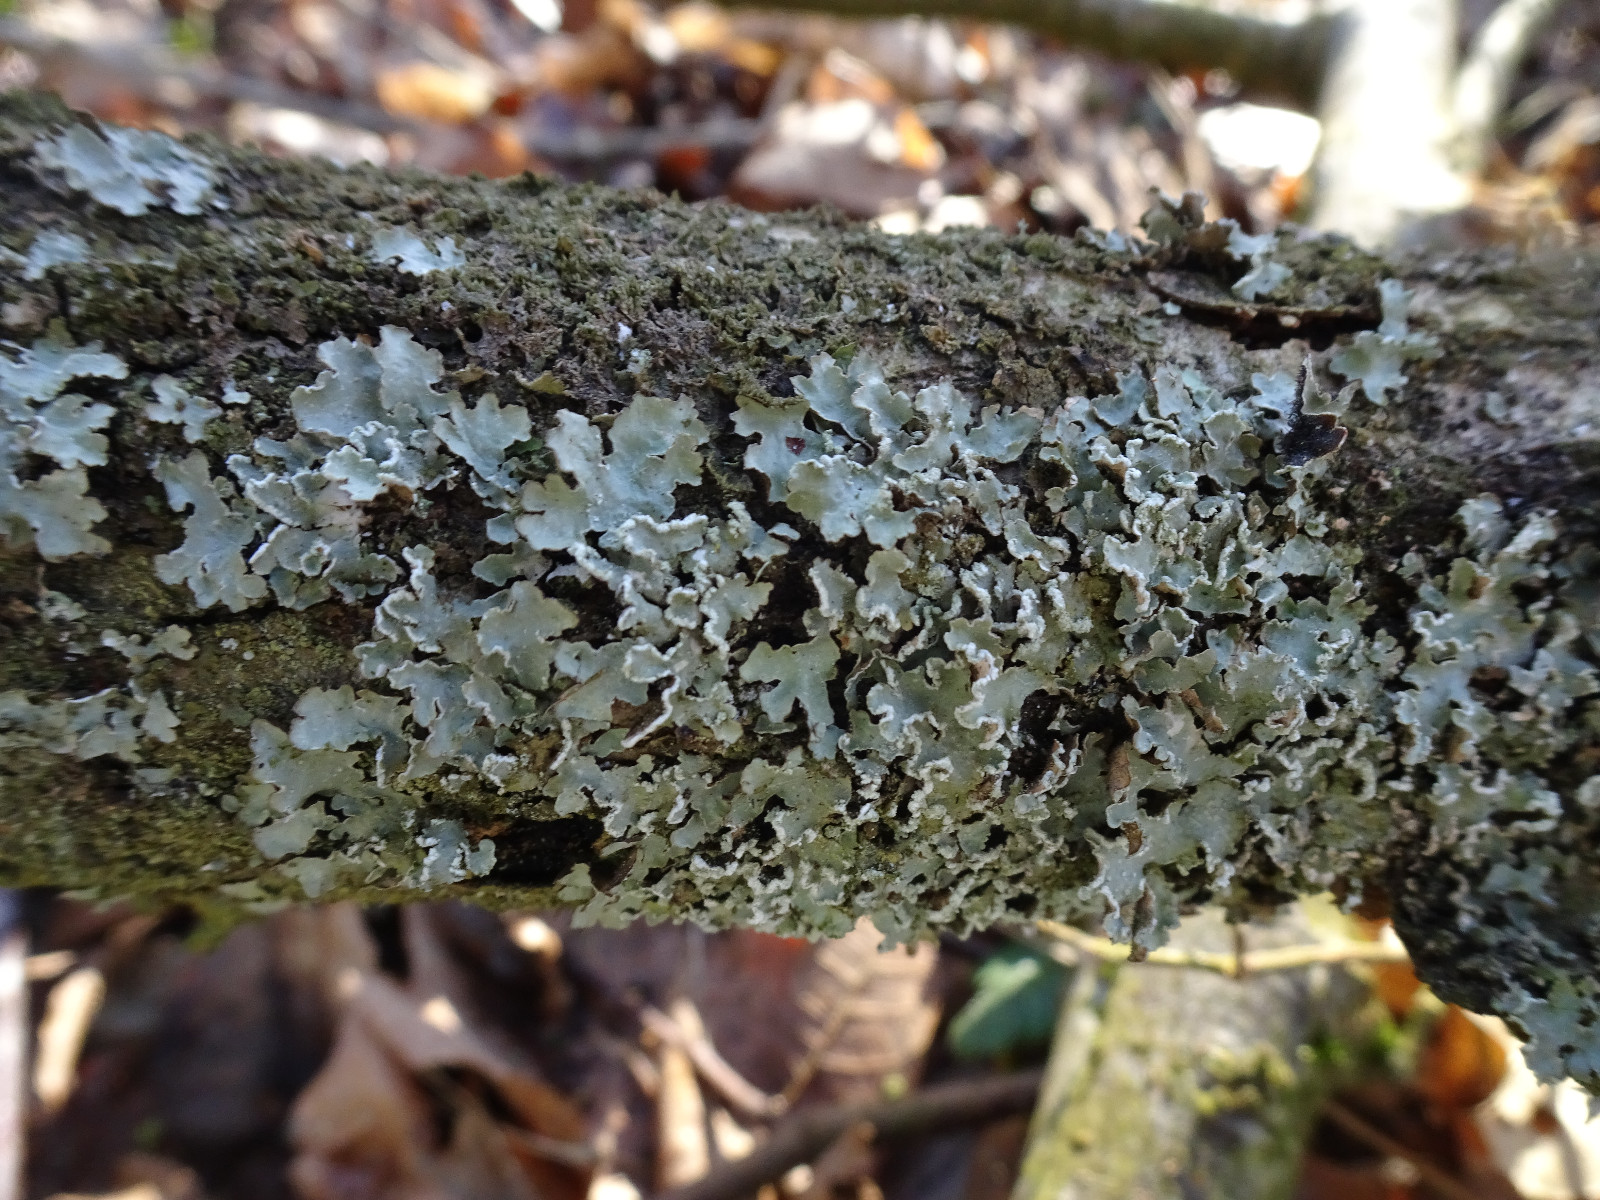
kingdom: Fungi
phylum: Ascomycota
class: Lecanoromycetes
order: Lecanorales
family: Parmeliaceae
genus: Punctelia
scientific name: Punctelia jeckeri
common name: randstøvet skållav
